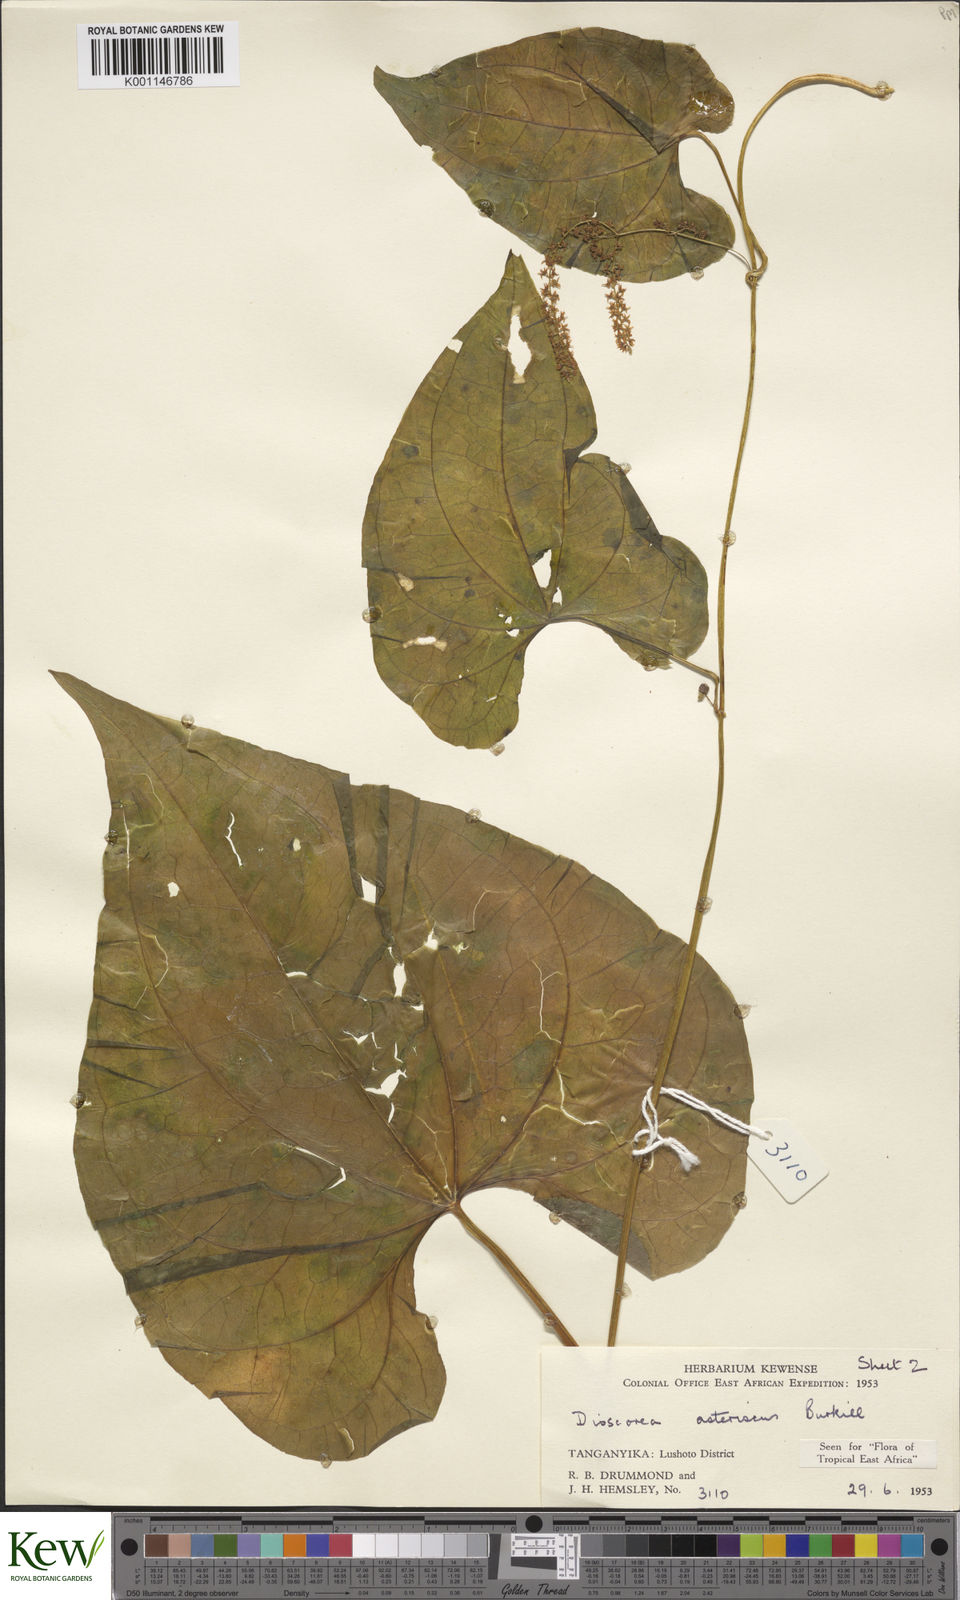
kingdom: Plantae
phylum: Tracheophyta
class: Liliopsida
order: Dioscoreales
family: Dioscoreaceae
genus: Dioscorea
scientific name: Dioscorea asteriscus
